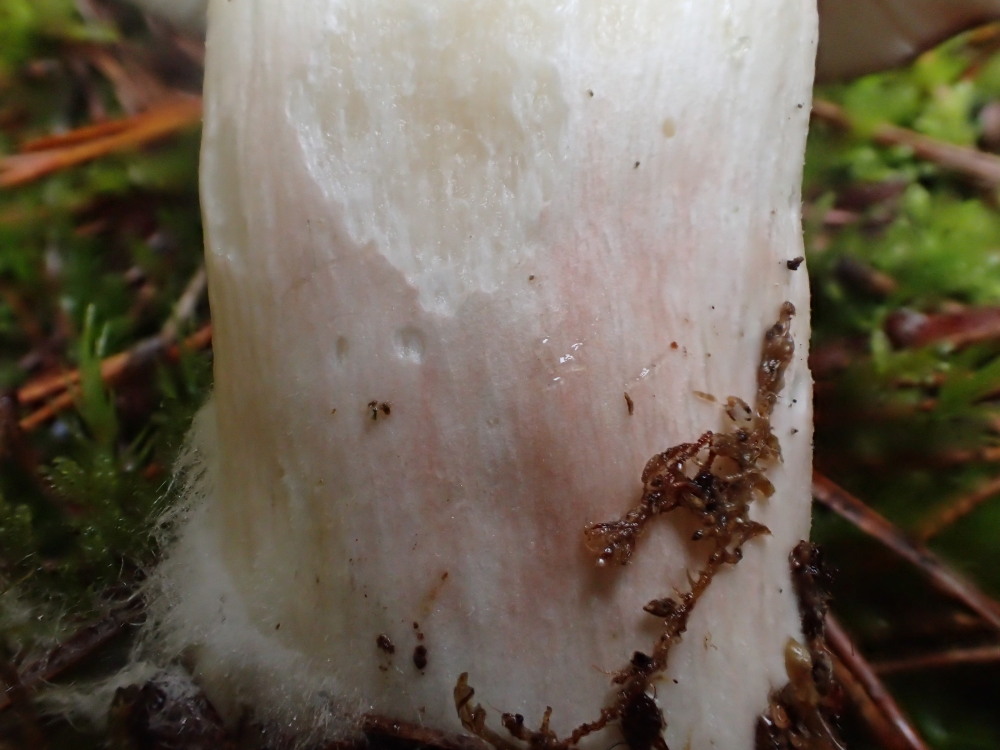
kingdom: Fungi
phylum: Basidiomycota
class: Agaricomycetes
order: Russulales
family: Russulaceae
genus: Russula
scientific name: Russula paludosa
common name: prægtig skørhat
